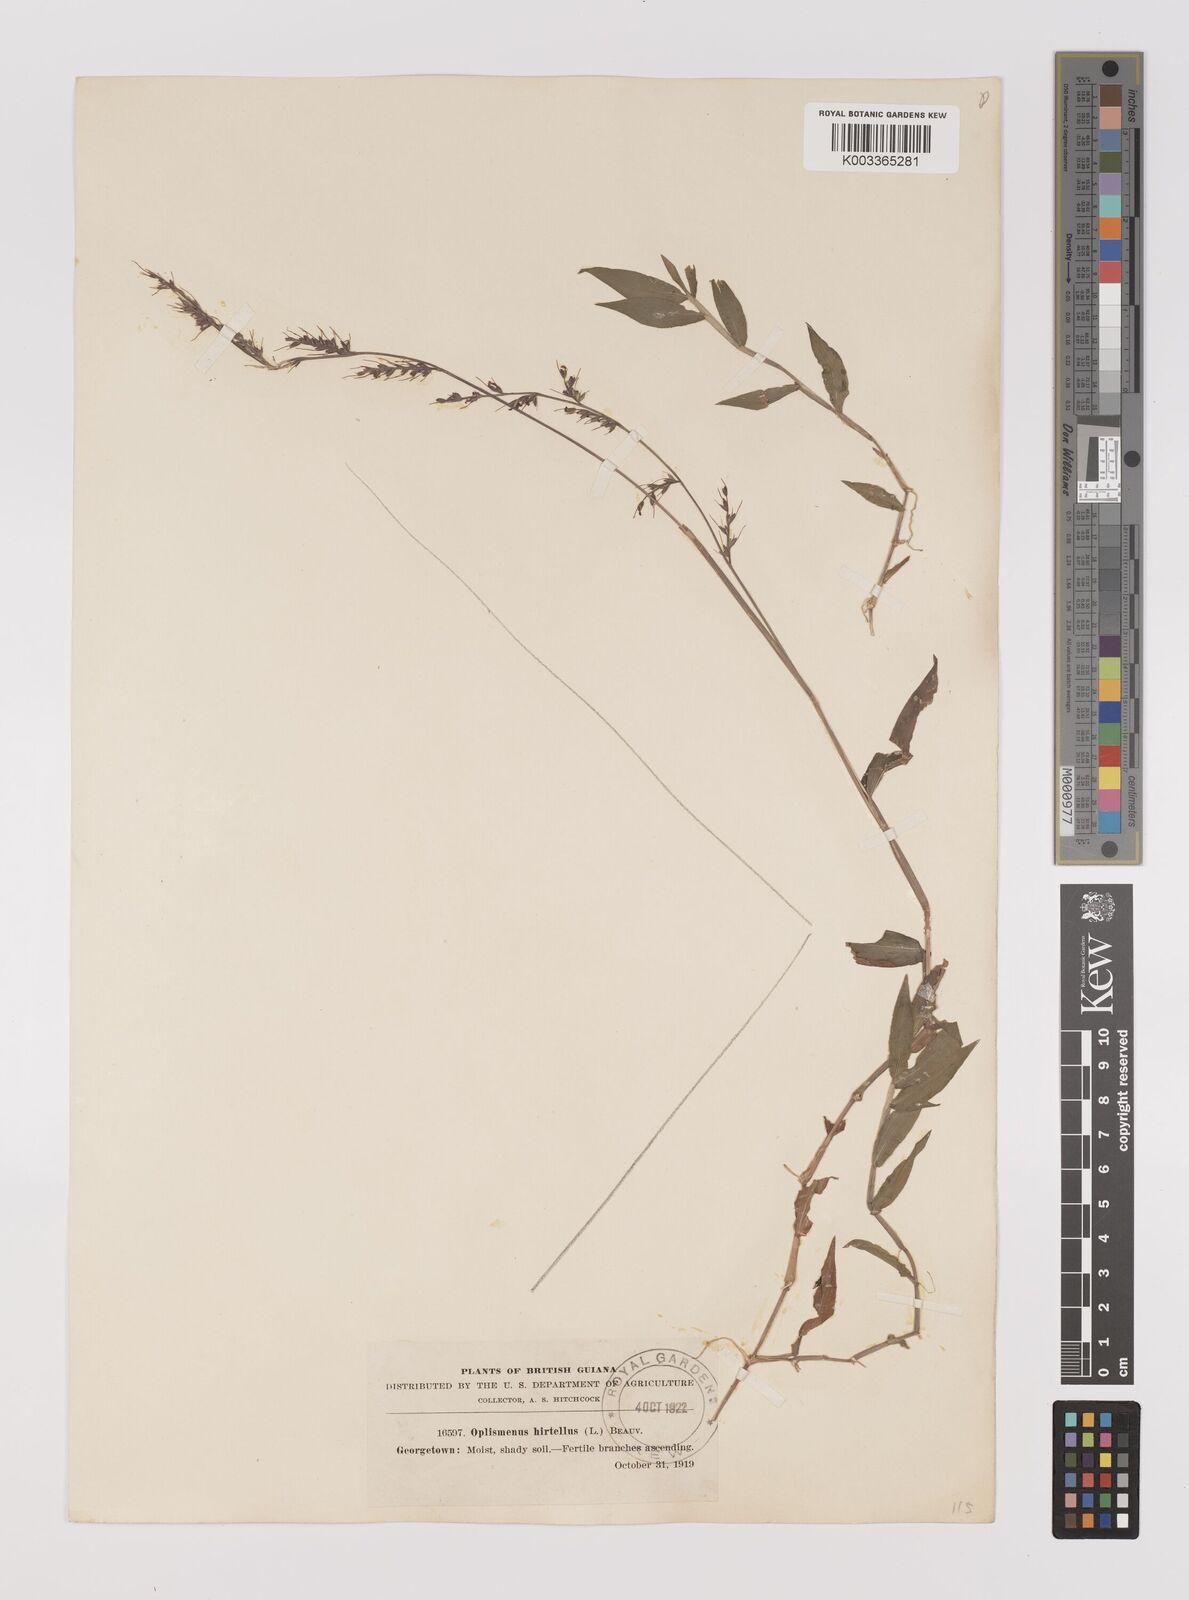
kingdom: Plantae
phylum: Tracheophyta
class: Liliopsida
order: Poales
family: Poaceae
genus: Oplismenus
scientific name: Oplismenus hirtellus
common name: Basketgrass
